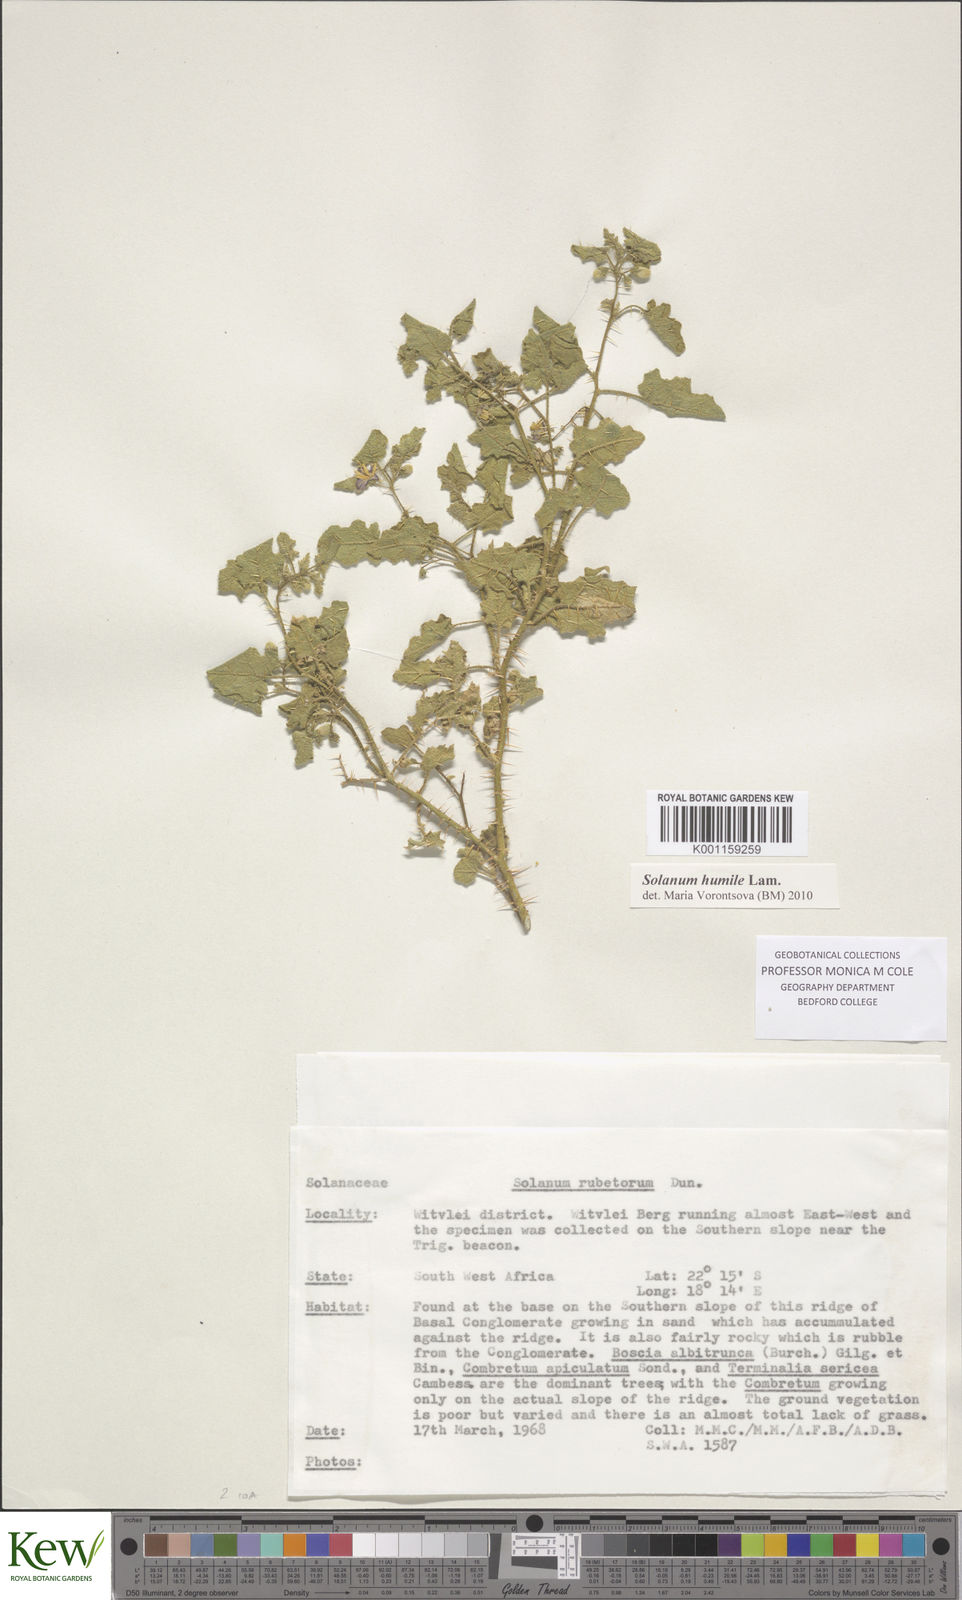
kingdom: Plantae
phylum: Tracheophyta
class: Magnoliopsida
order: Solanales
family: Solanaceae
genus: Solanum
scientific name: Solanum humile
